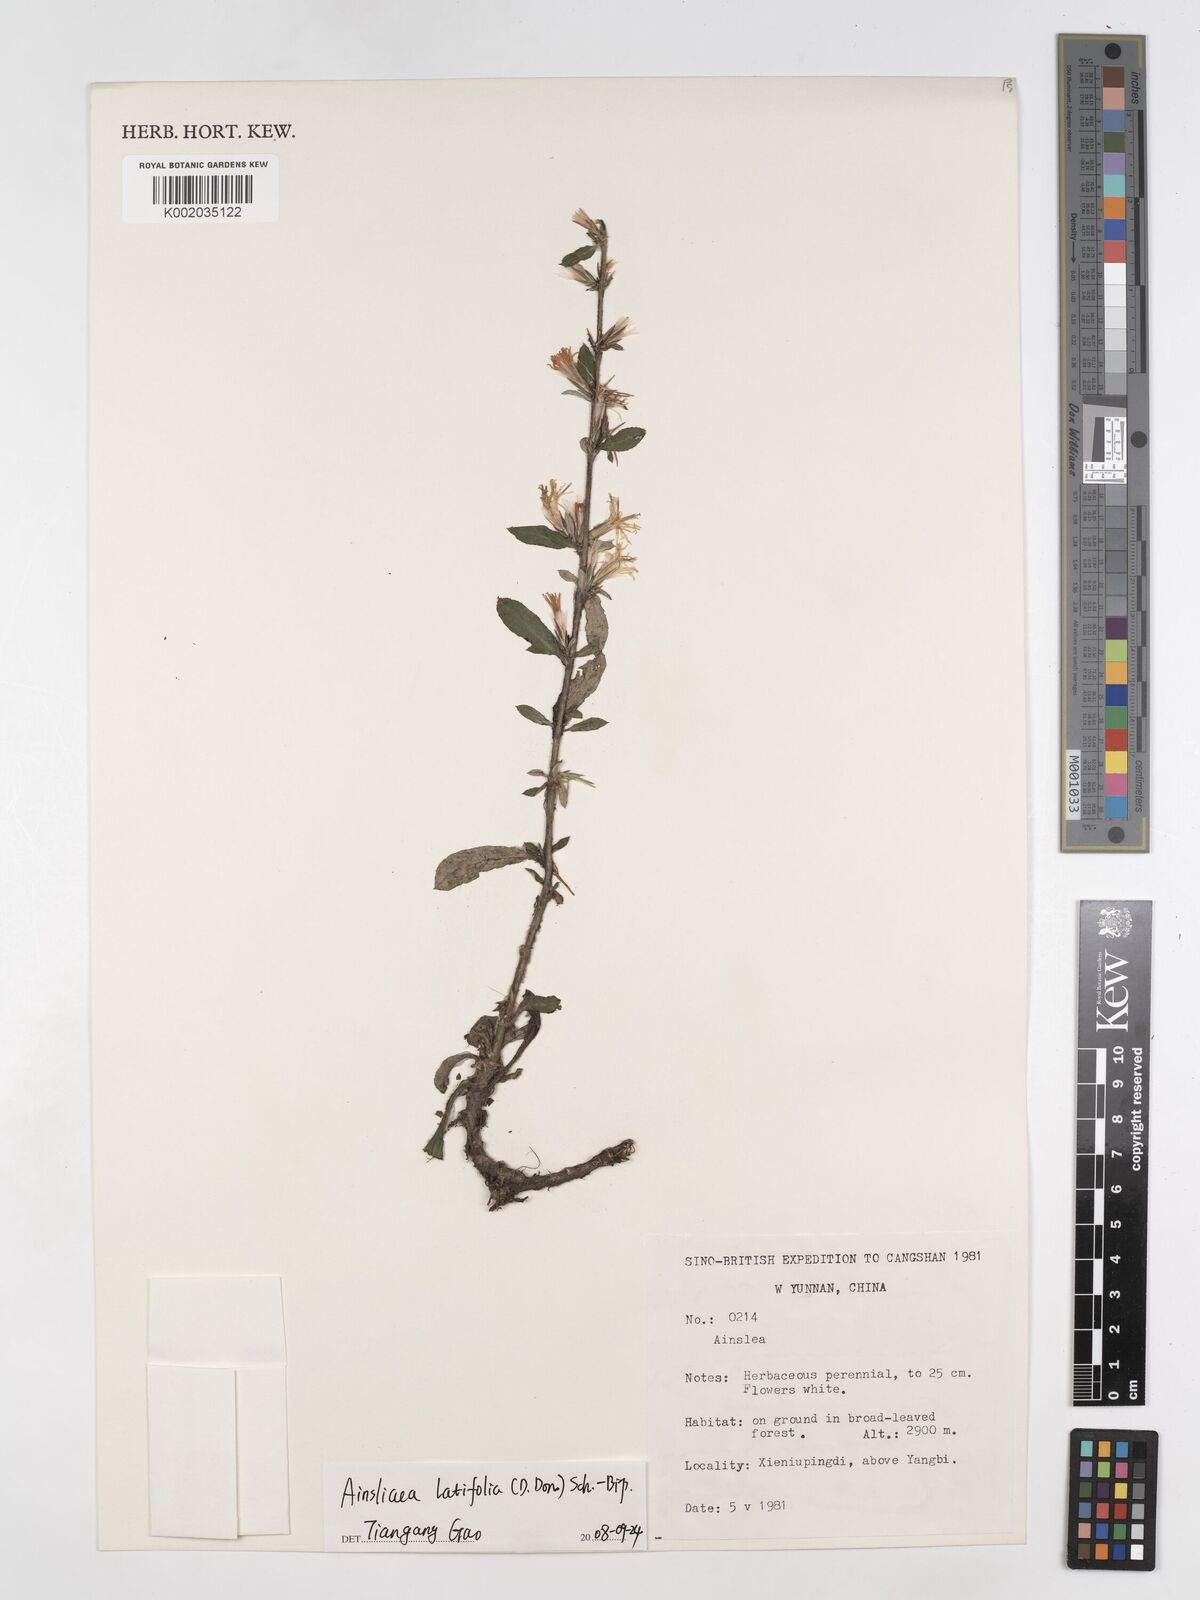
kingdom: Plantae
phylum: Tracheophyta
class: Magnoliopsida
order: Asterales
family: Asteraceae
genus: Ainsliaea
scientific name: Ainsliaea latifolia
